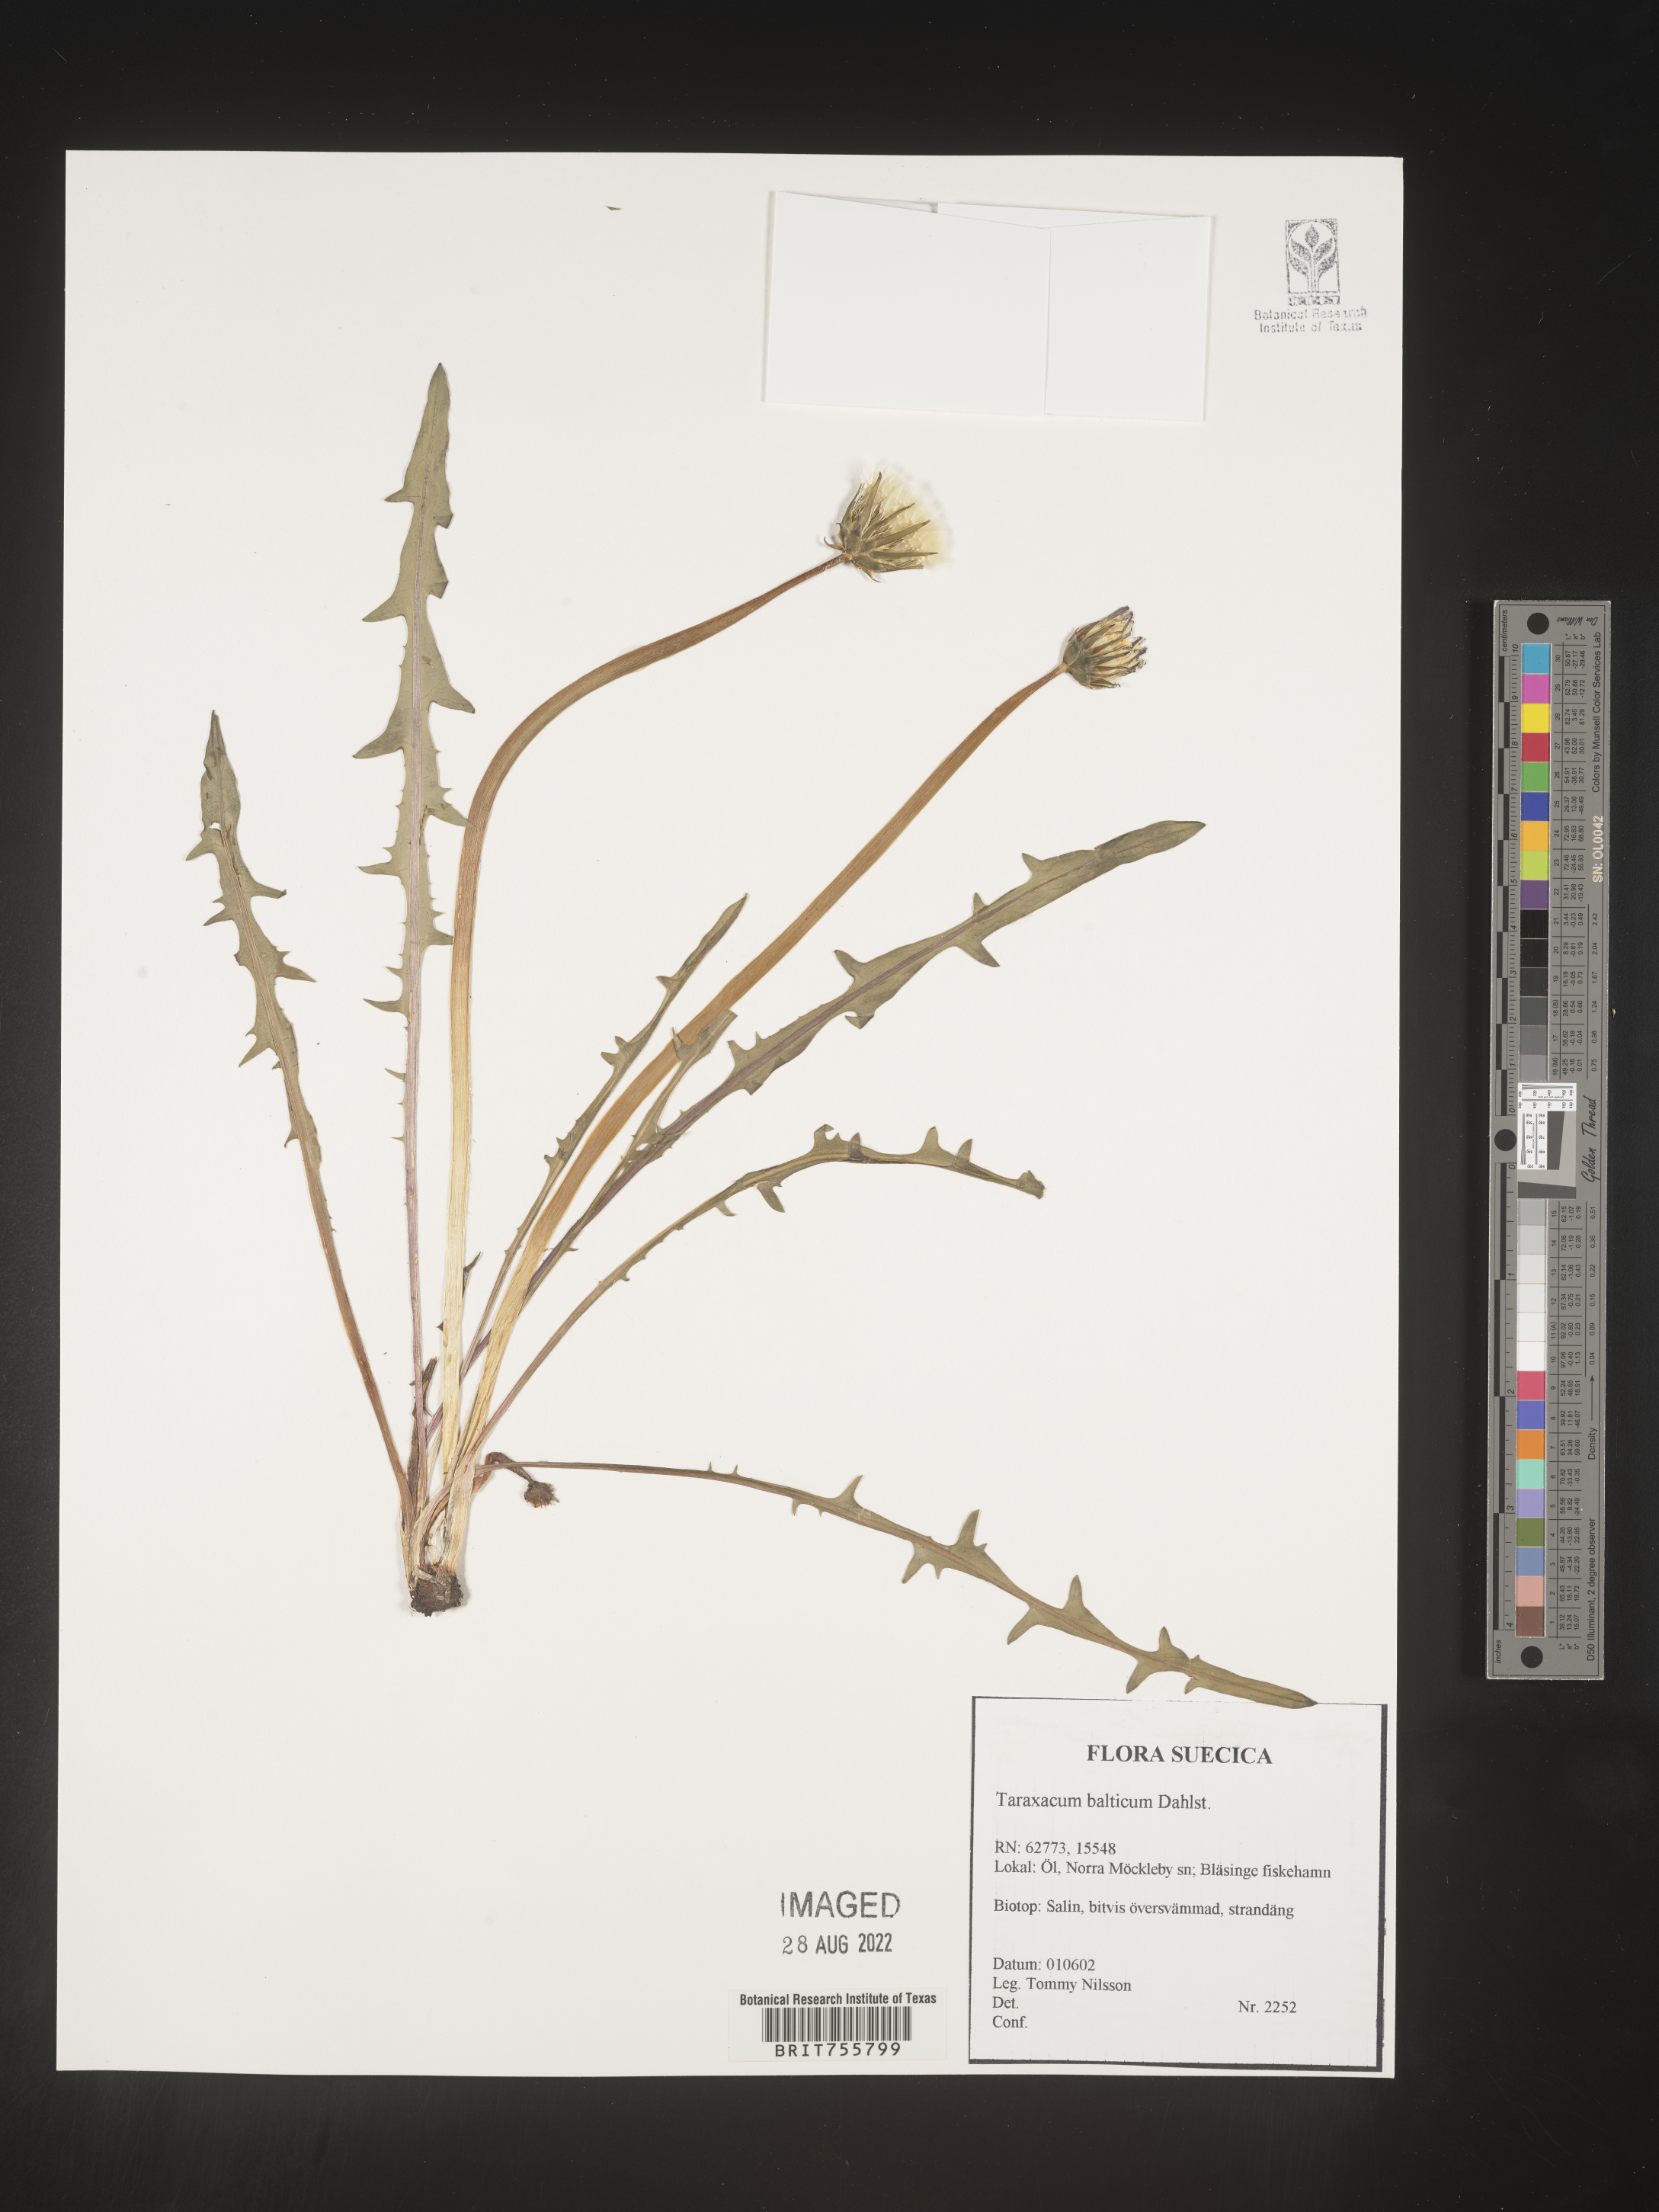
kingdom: Plantae
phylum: Tracheophyta
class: Magnoliopsida
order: Asterales
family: Asteraceae
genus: Taraxacum
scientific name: Taraxacum
